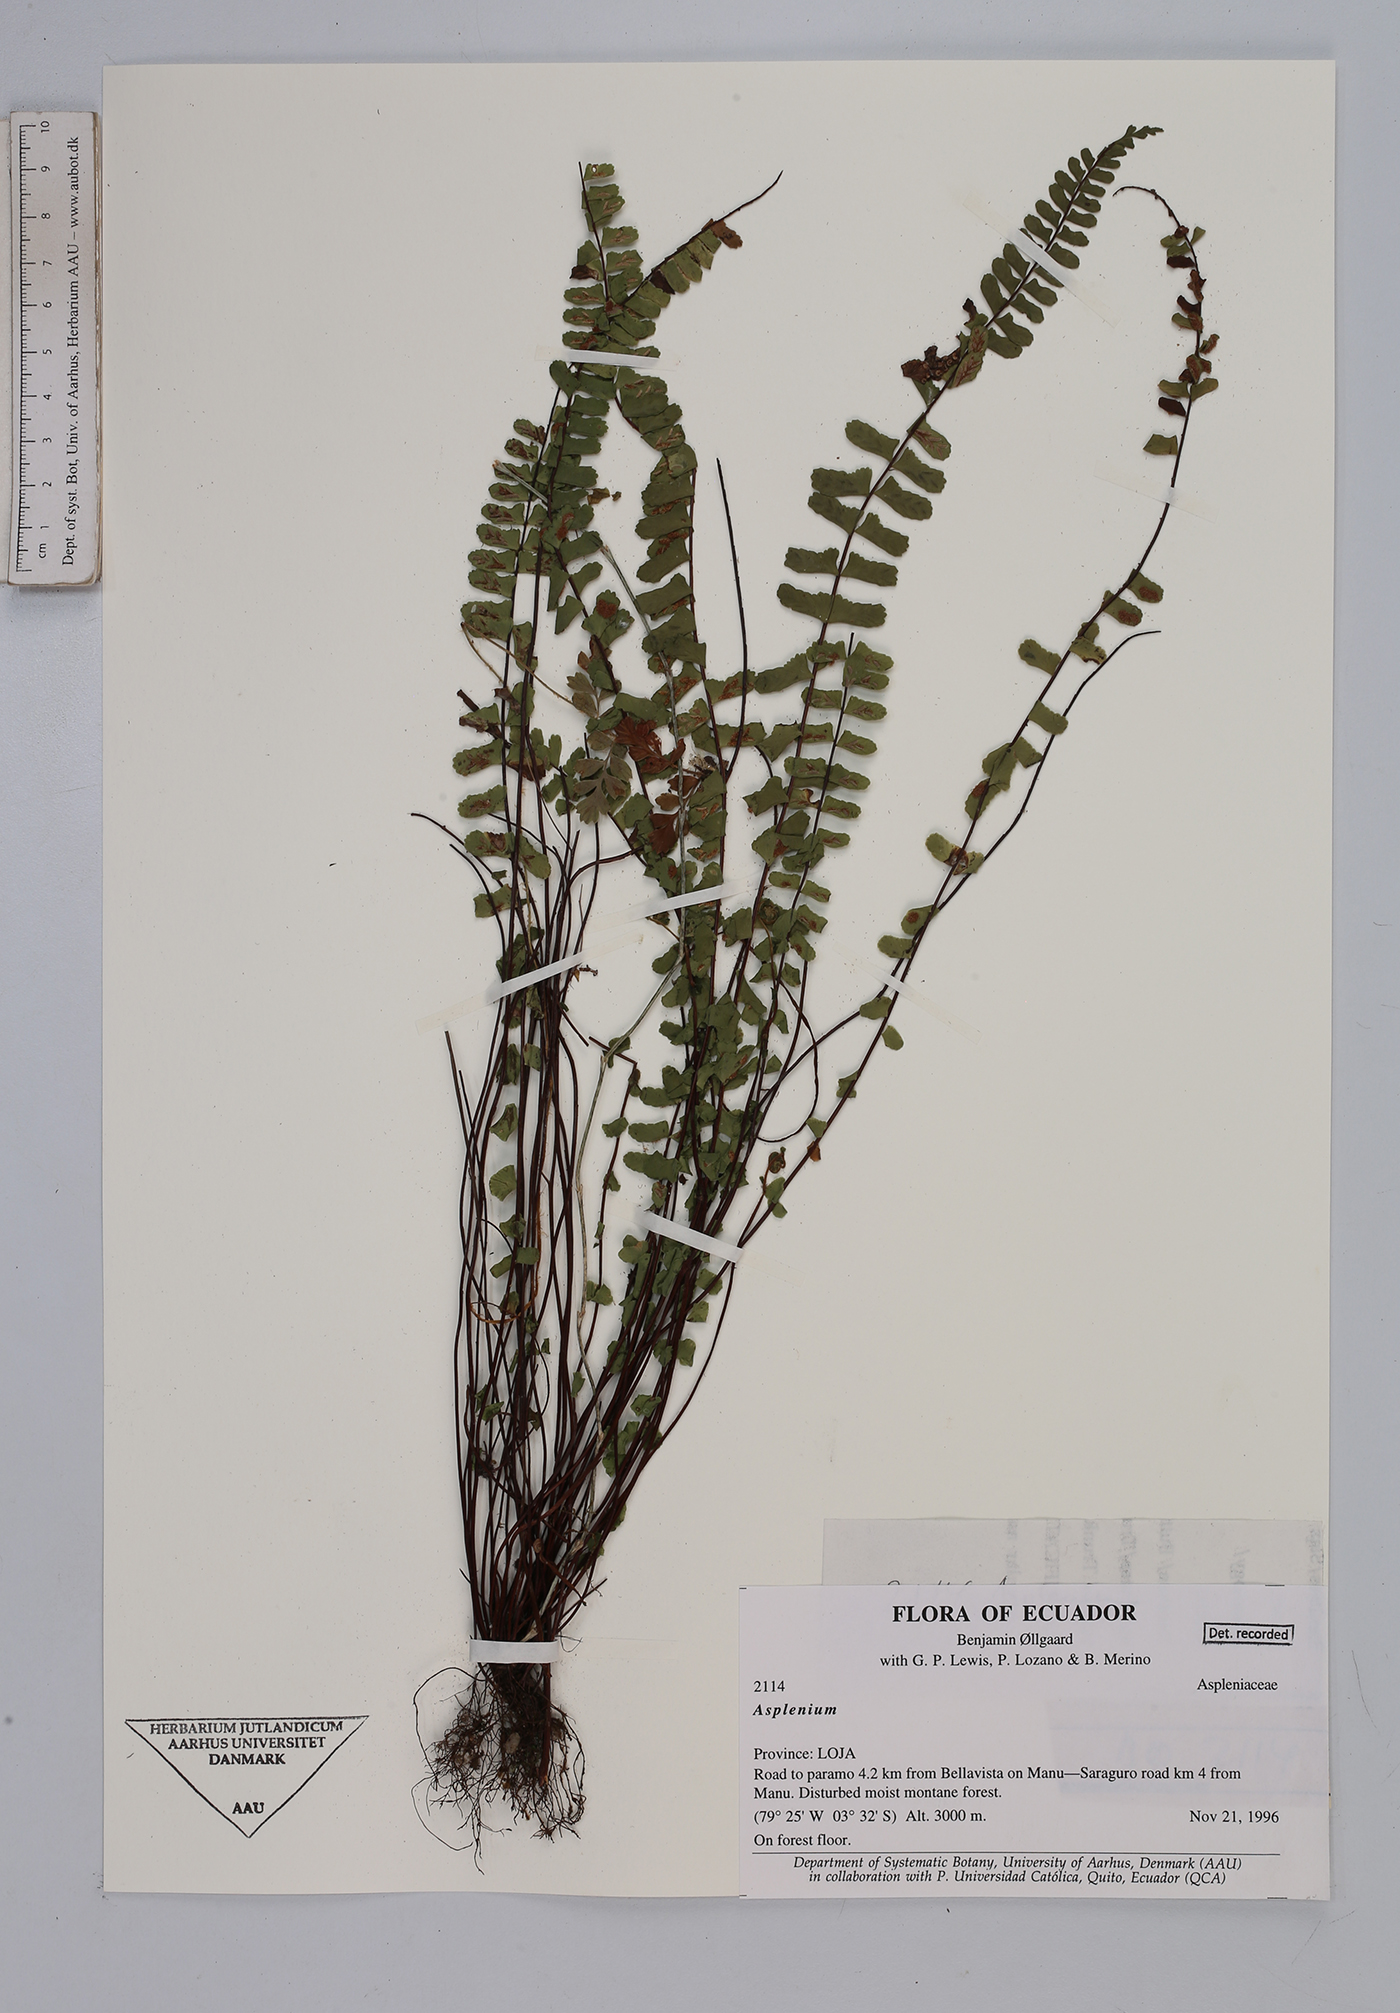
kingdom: Plantae
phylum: Tracheophyta
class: Polypodiopsida
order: Polypodiales
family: Aspleniaceae
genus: Asplenium
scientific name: Asplenium
